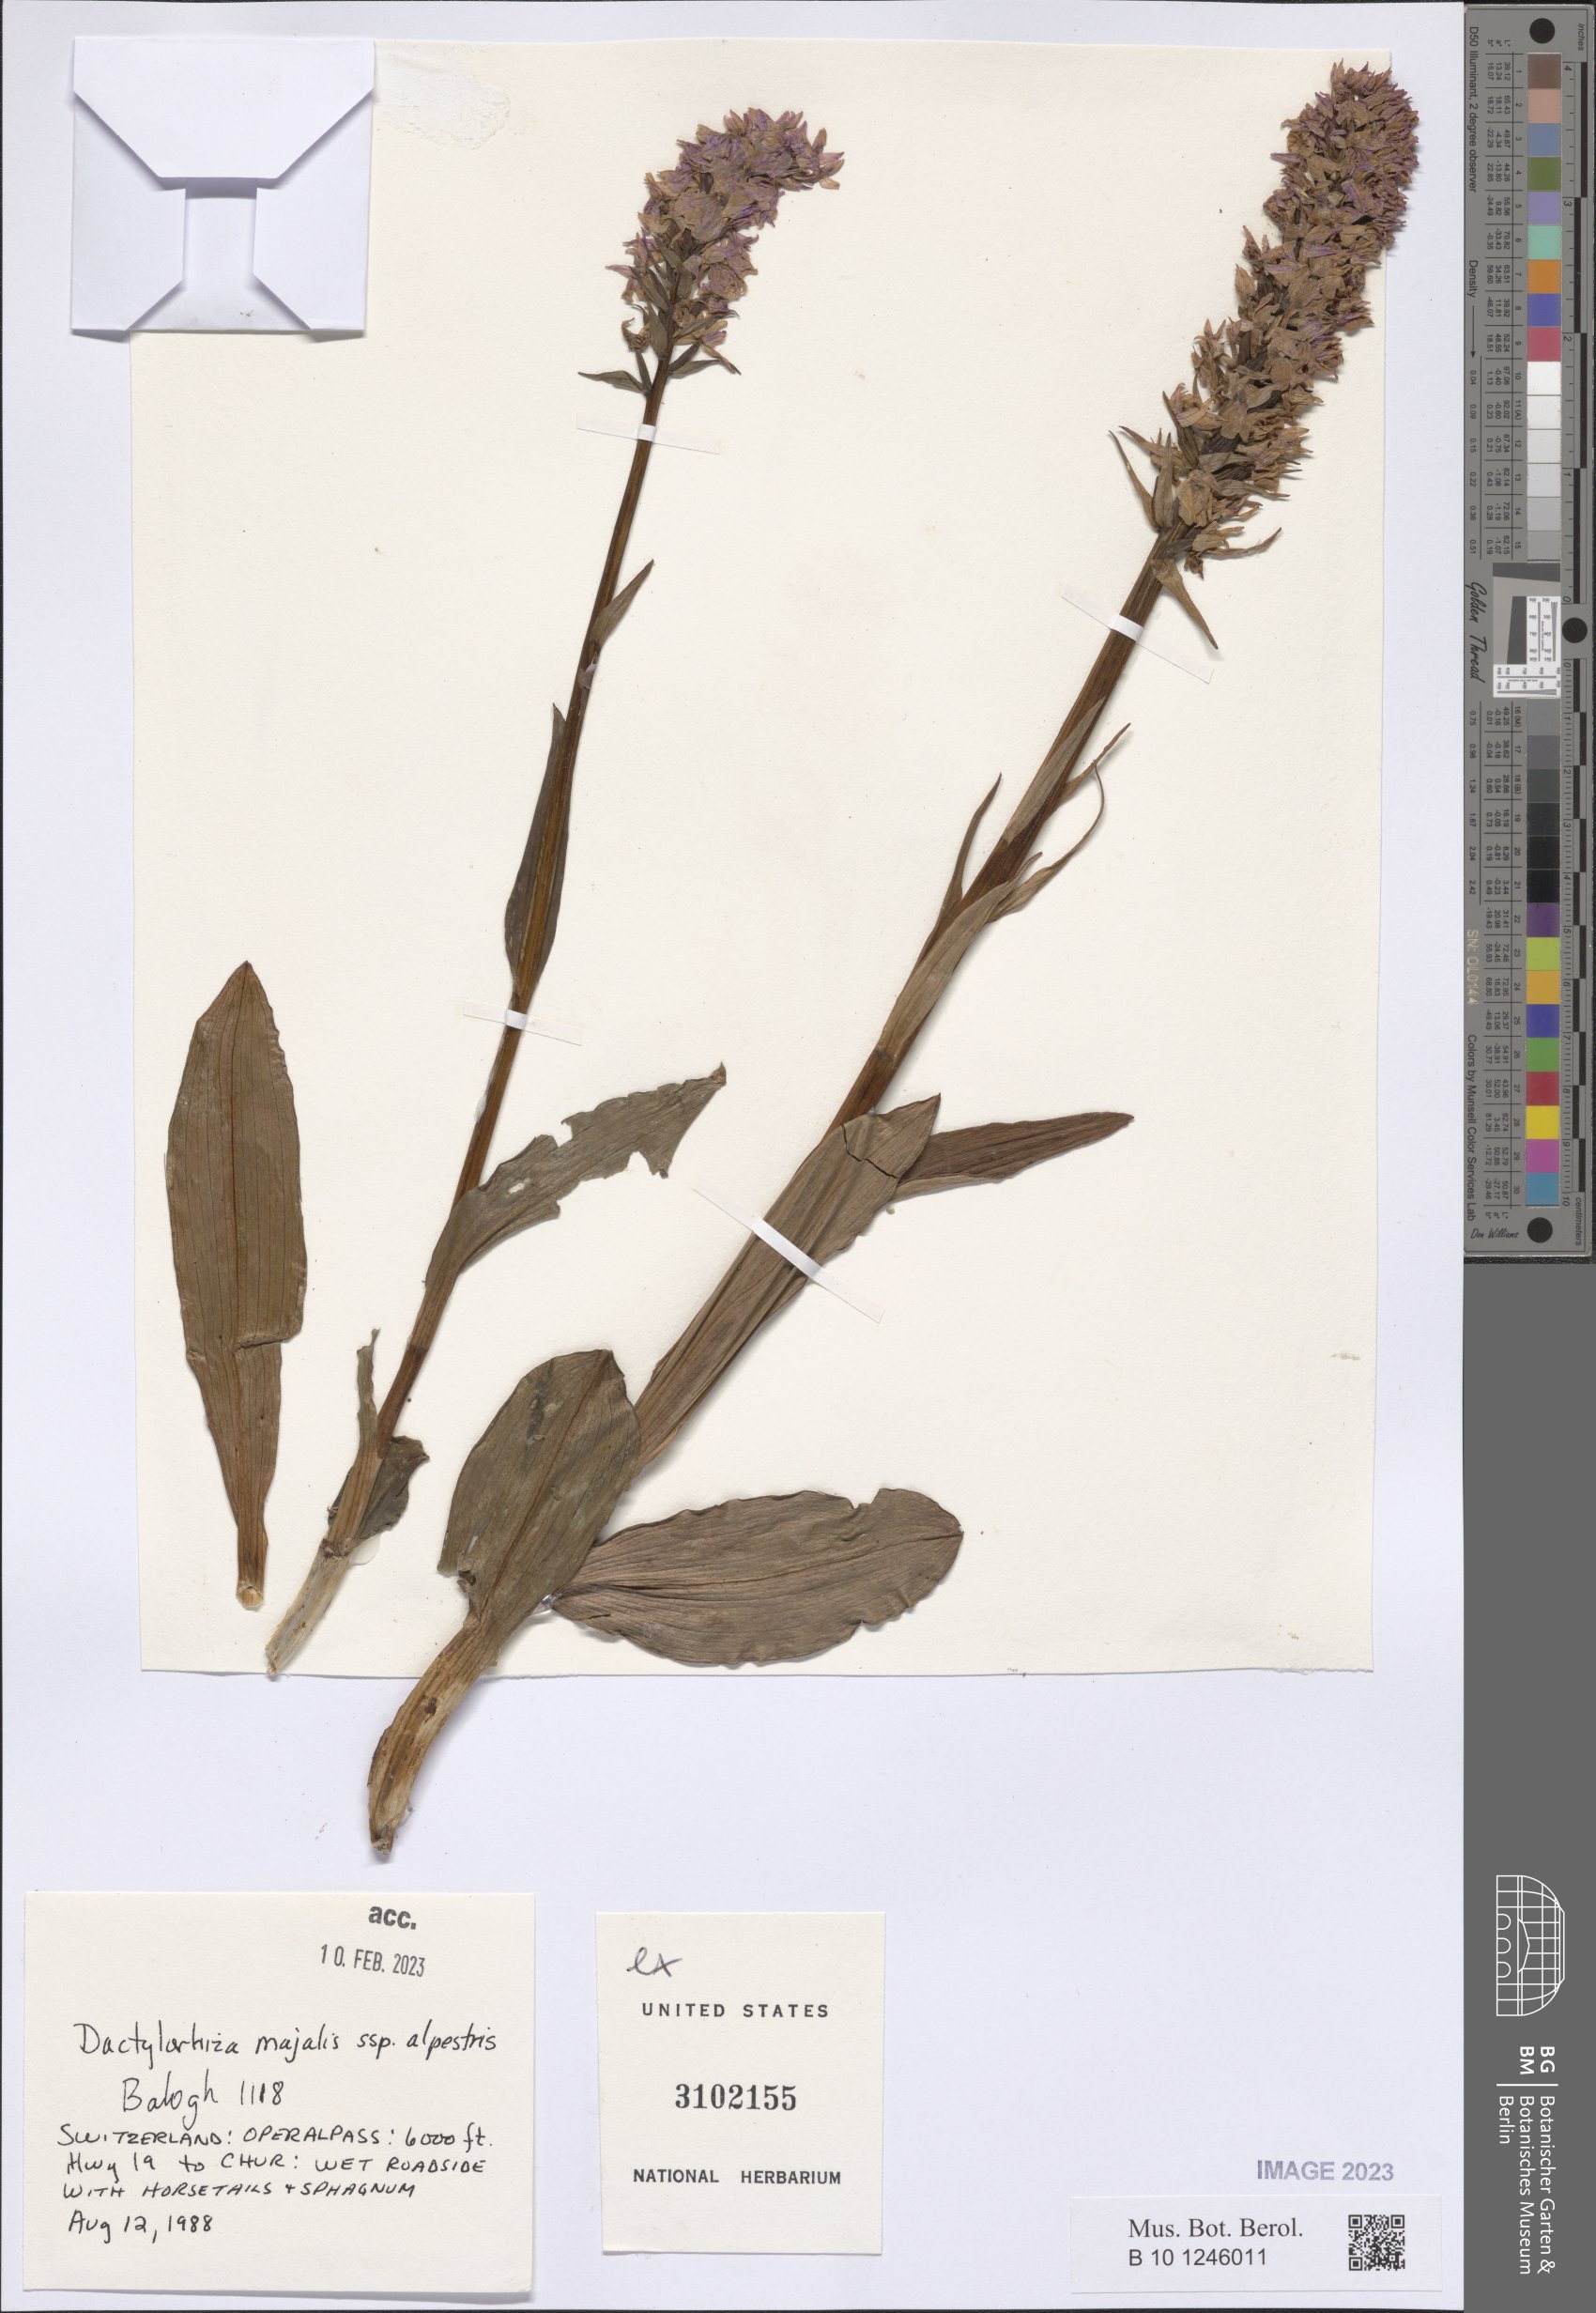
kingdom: Plantae
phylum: Tracheophyta
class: Liliopsida
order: Asparagales
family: Orchidaceae
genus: Dactylorhiza
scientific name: Dactylorhiza majalis
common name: Marsh orchid
